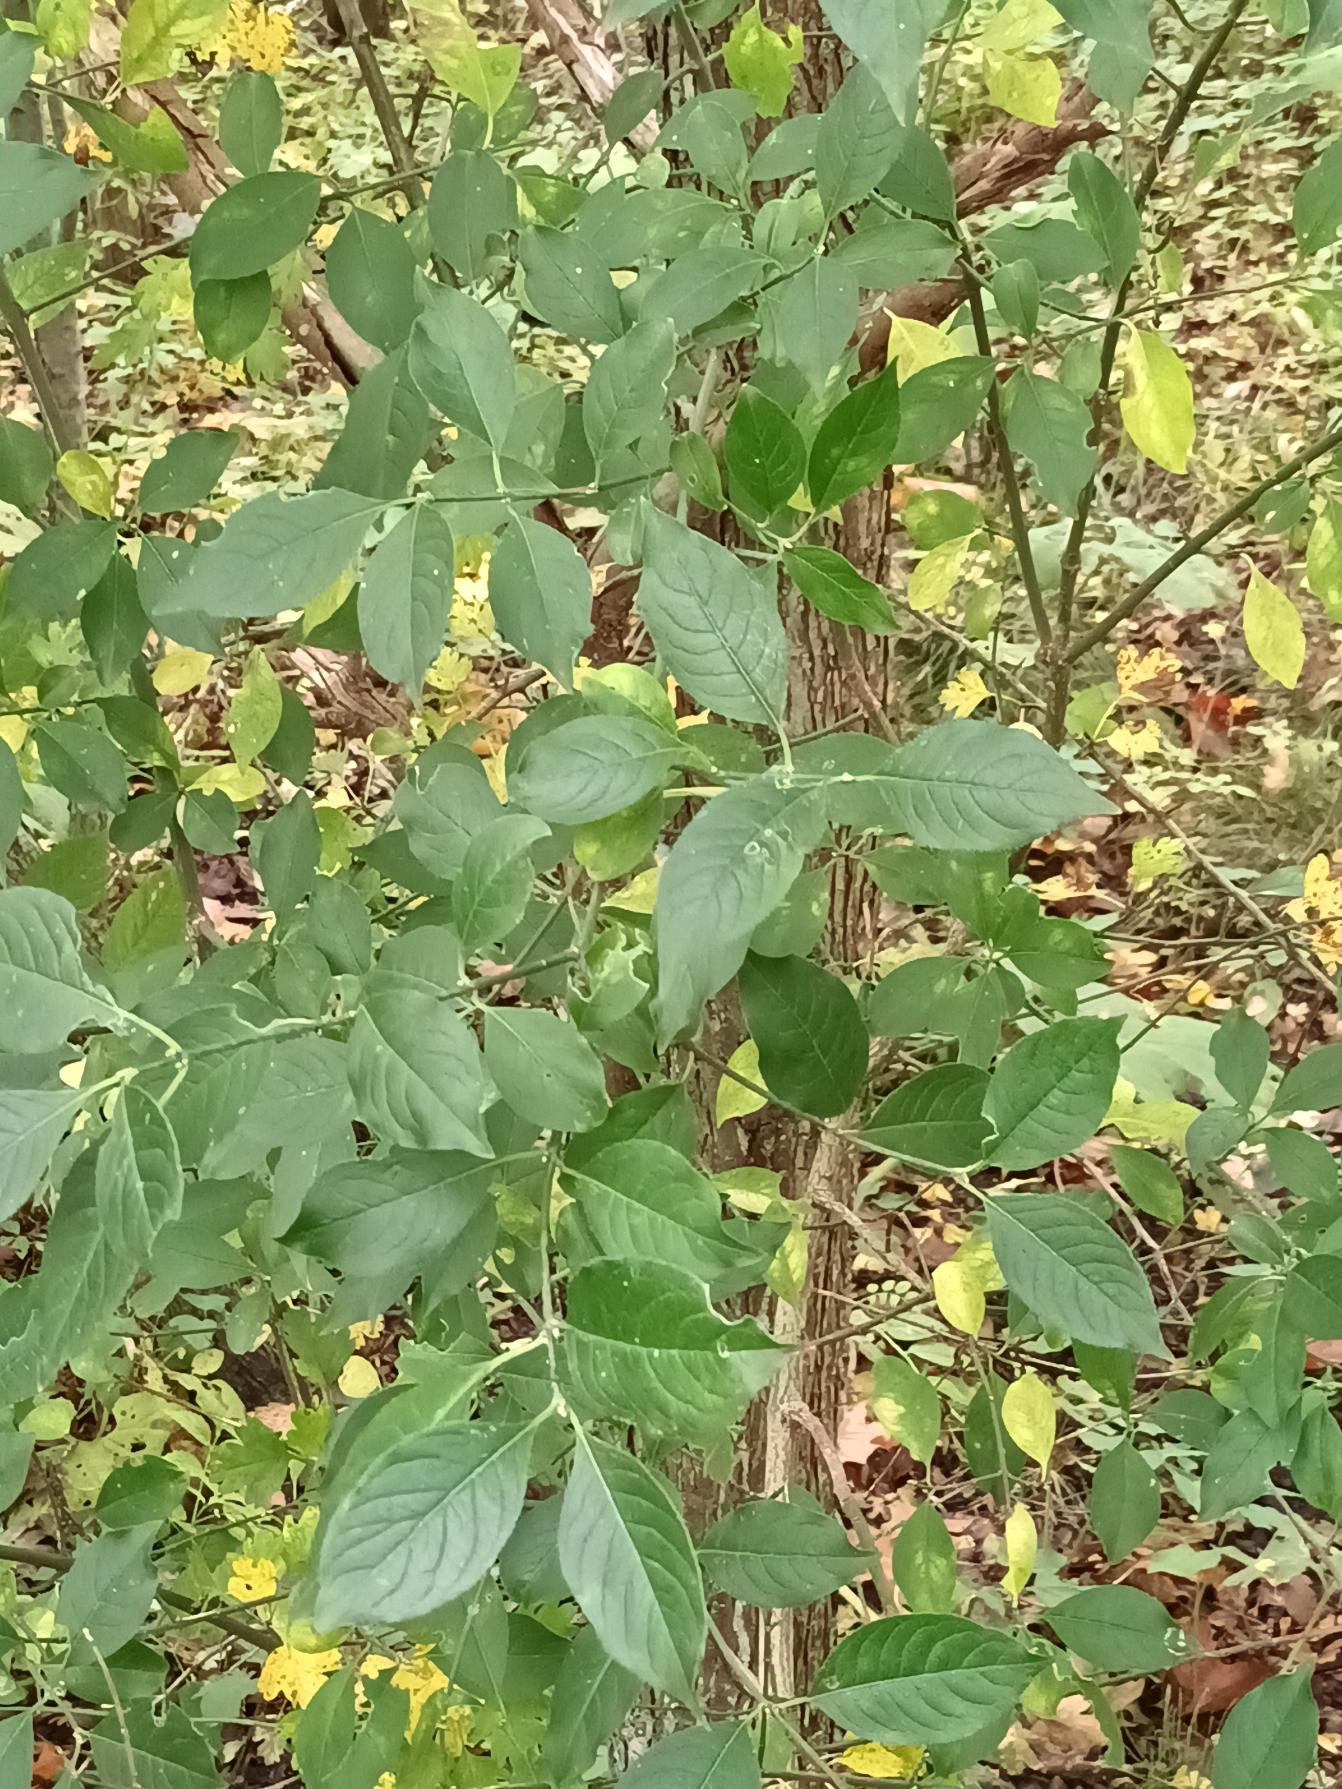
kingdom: Plantae
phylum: Tracheophyta
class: Magnoliopsida
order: Celastrales
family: Celastraceae
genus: Euonymus
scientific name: Euonymus europaeus
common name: Benved
